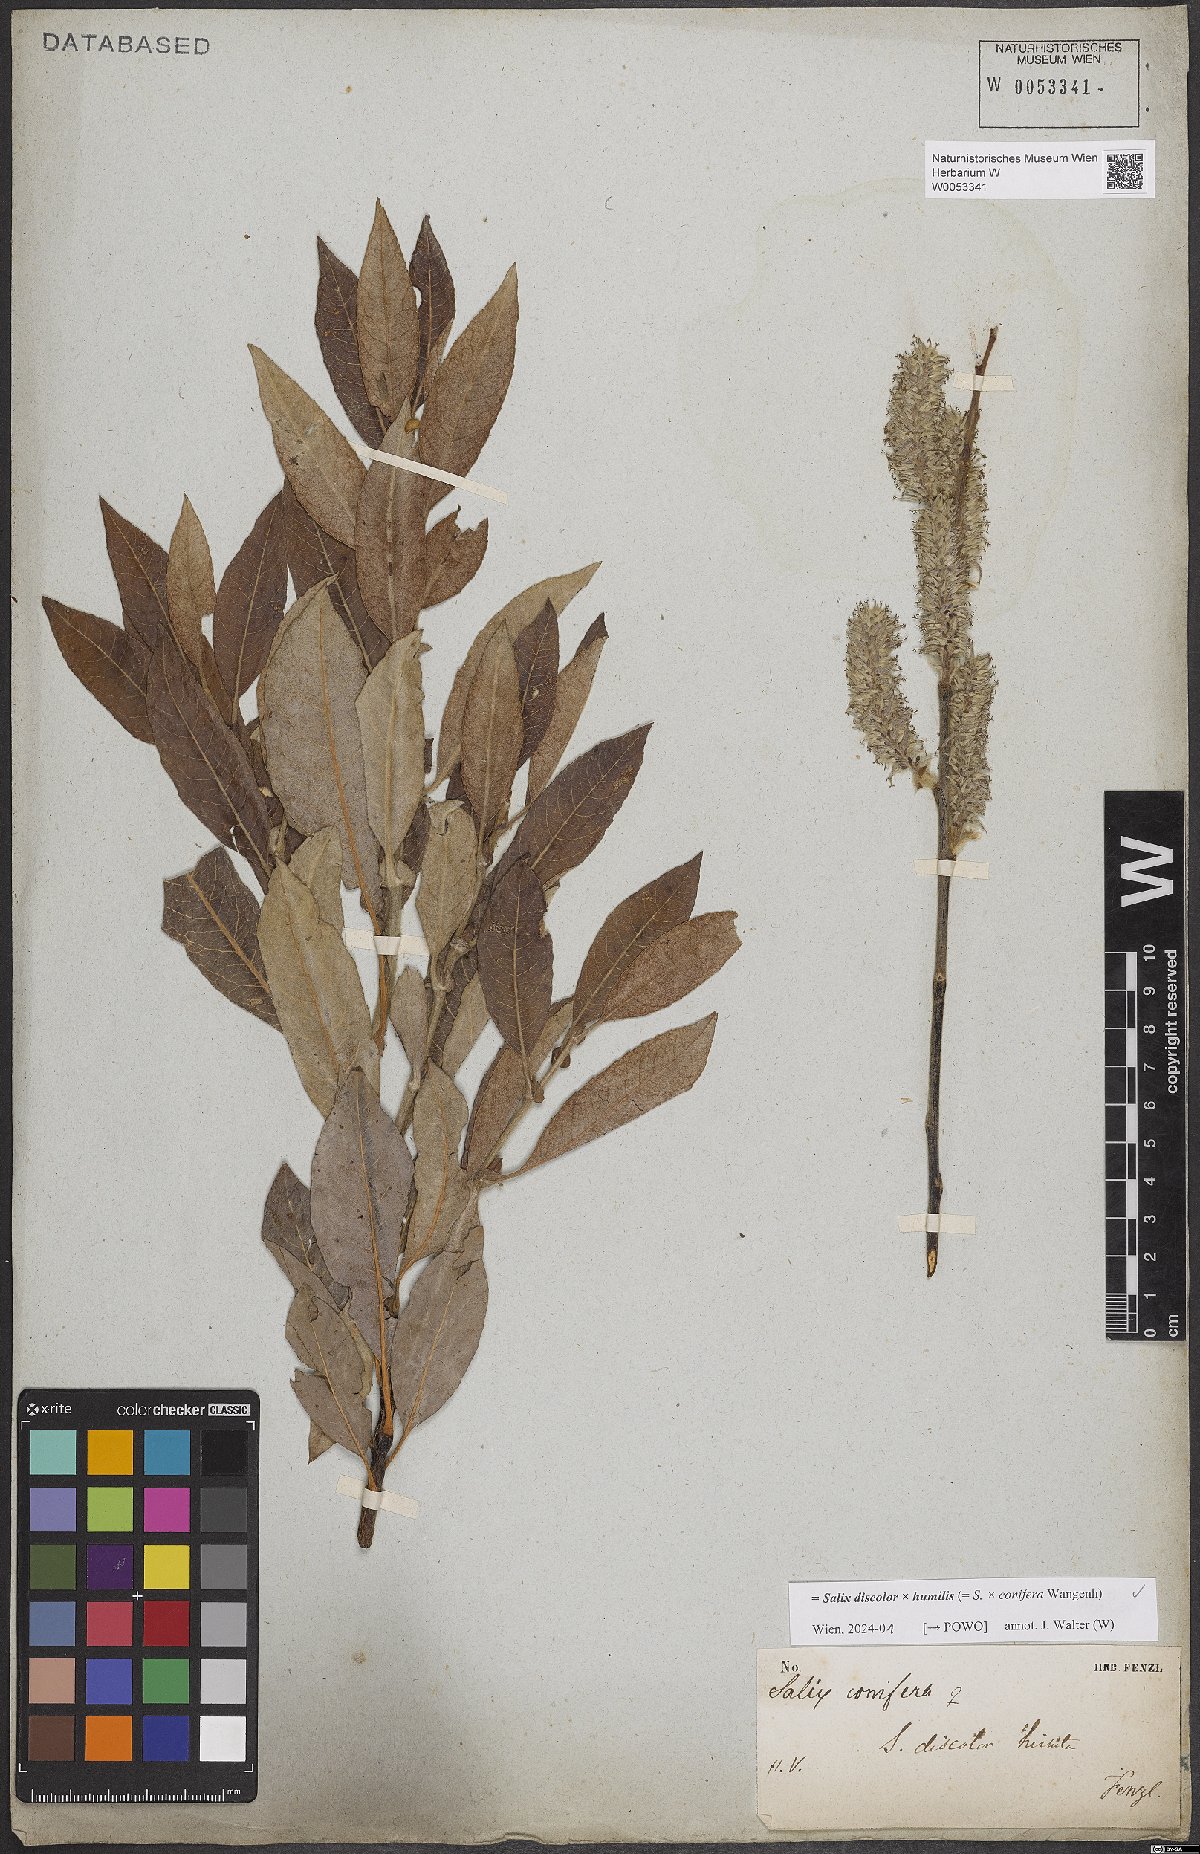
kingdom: Plantae
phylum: Tracheophyta
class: Magnoliopsida
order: Malpighiales
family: Salicaceae
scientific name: Salicaceae
